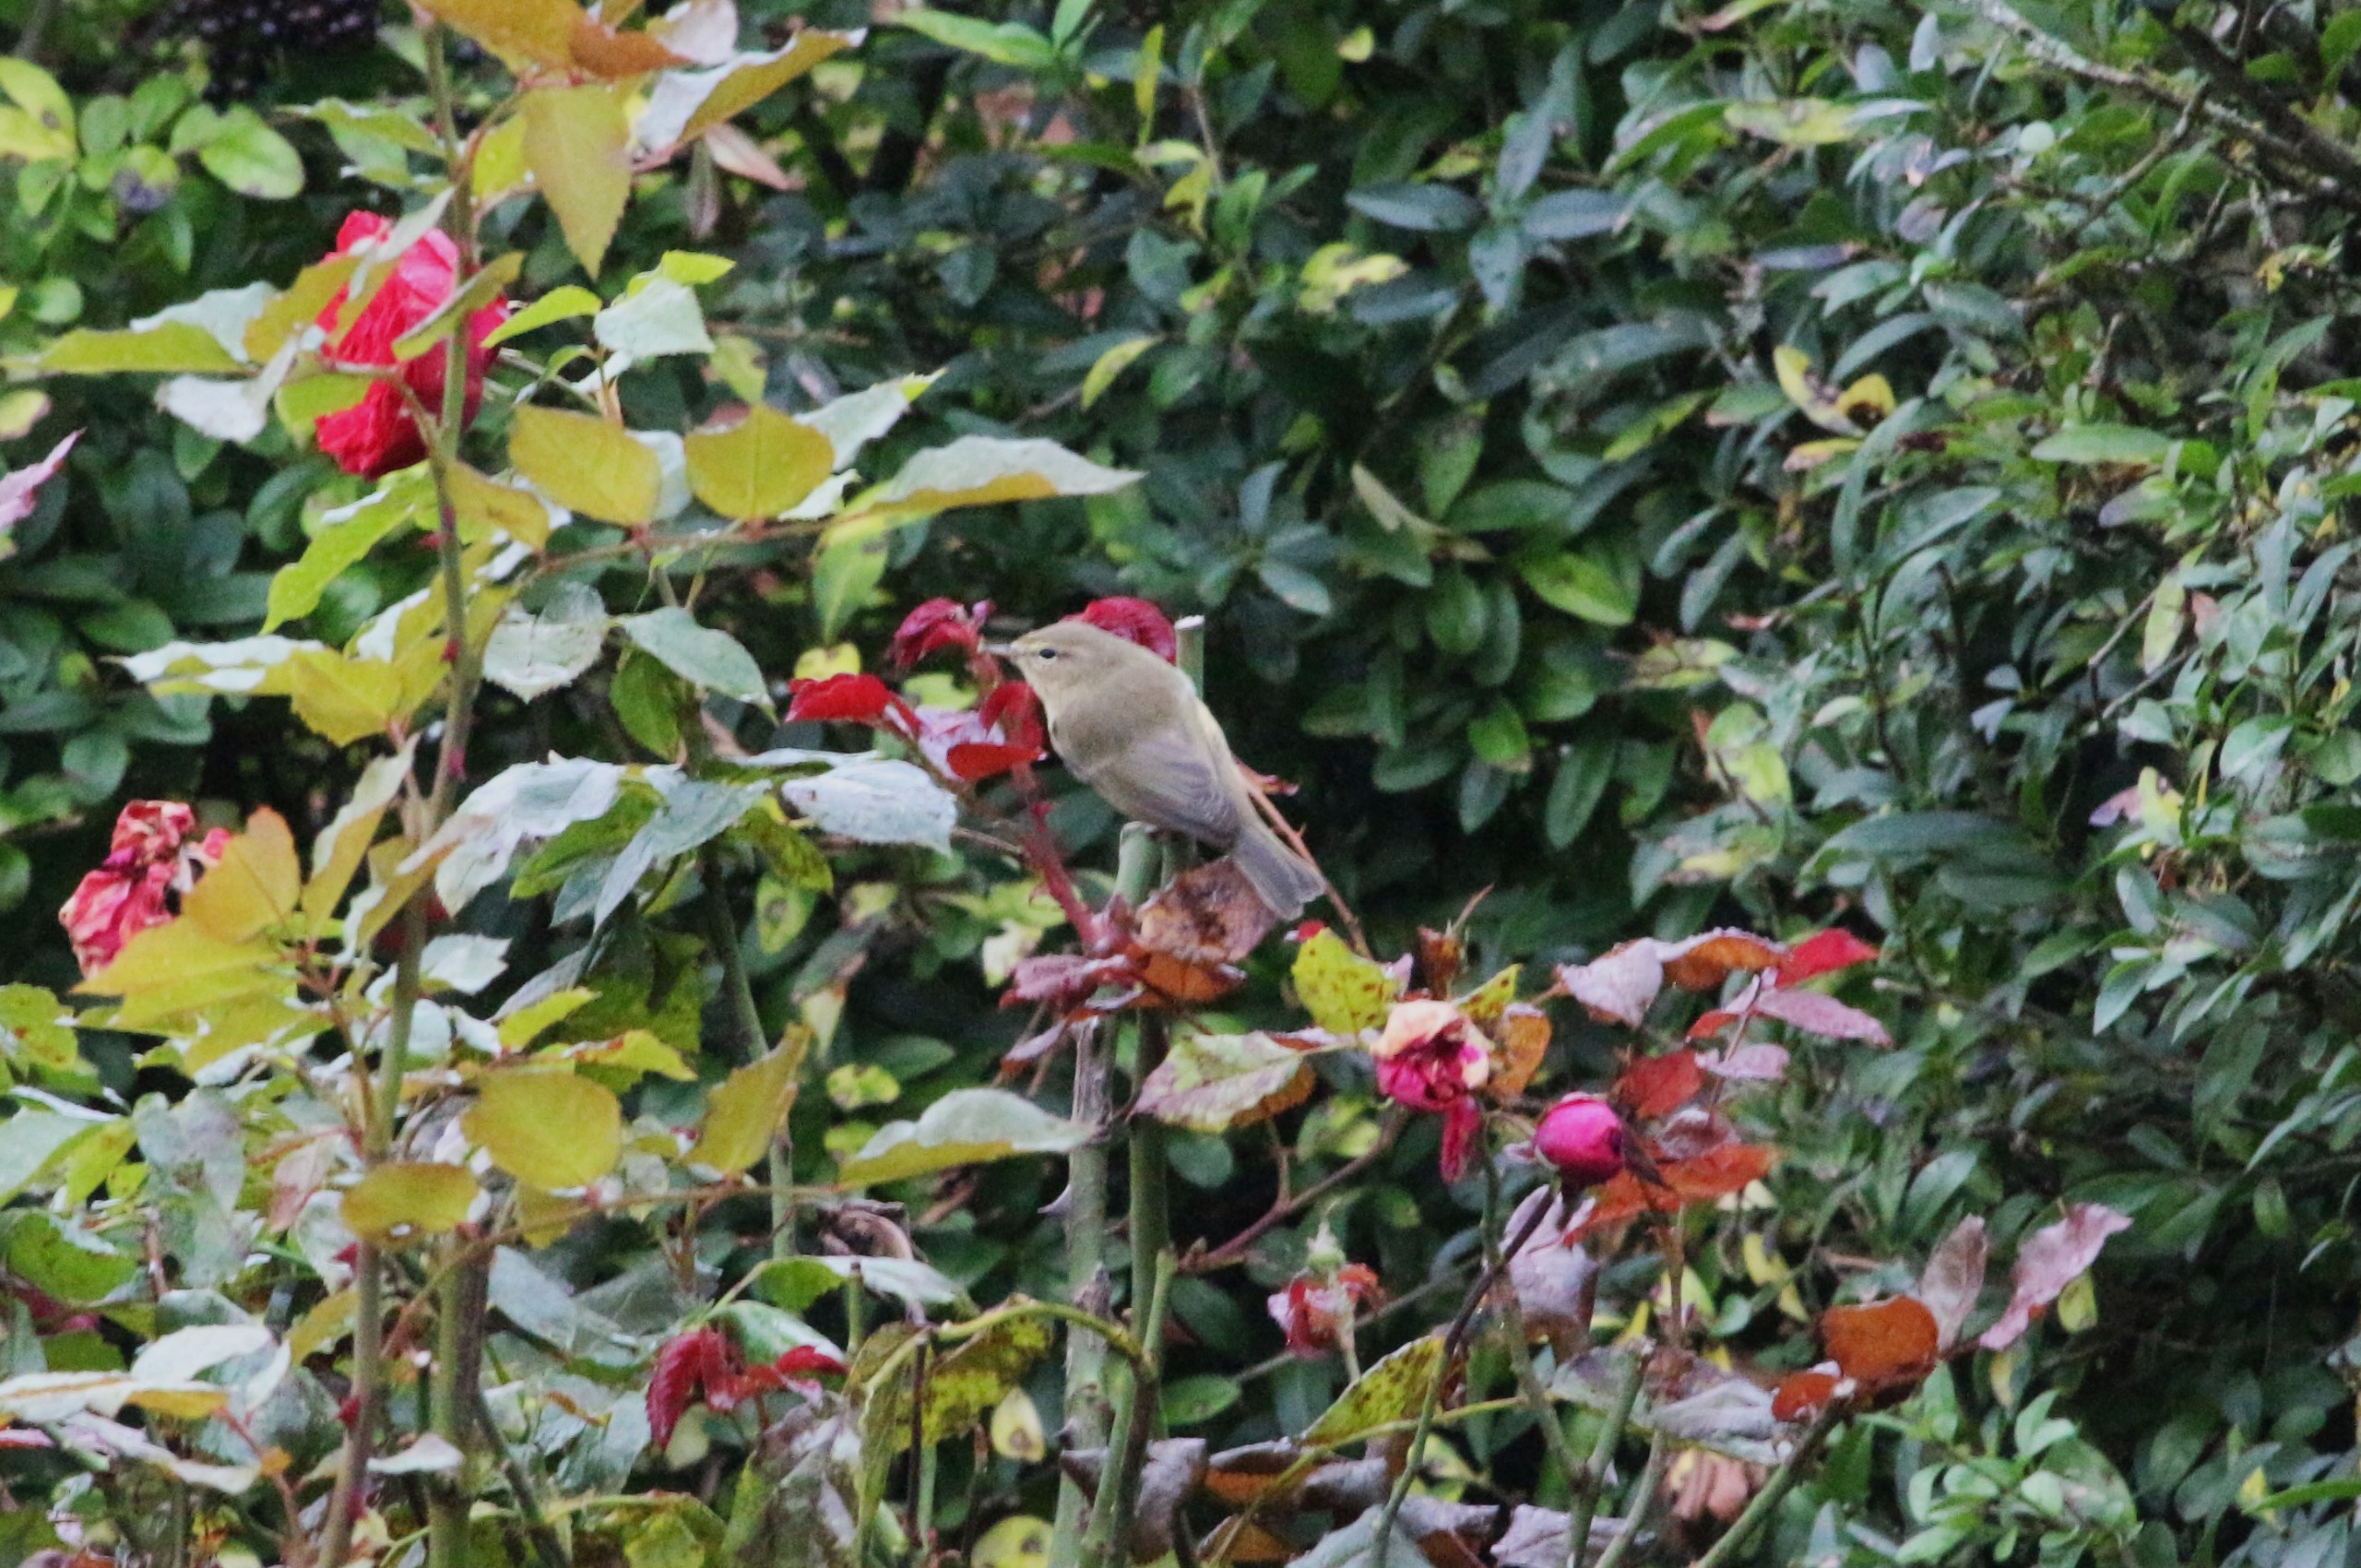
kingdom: Animalia
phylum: Chordata
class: Aves
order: Passeriformes
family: Phylloscopidae
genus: Phylloscopus
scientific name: Phylloscopus collybita
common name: Gransanger
